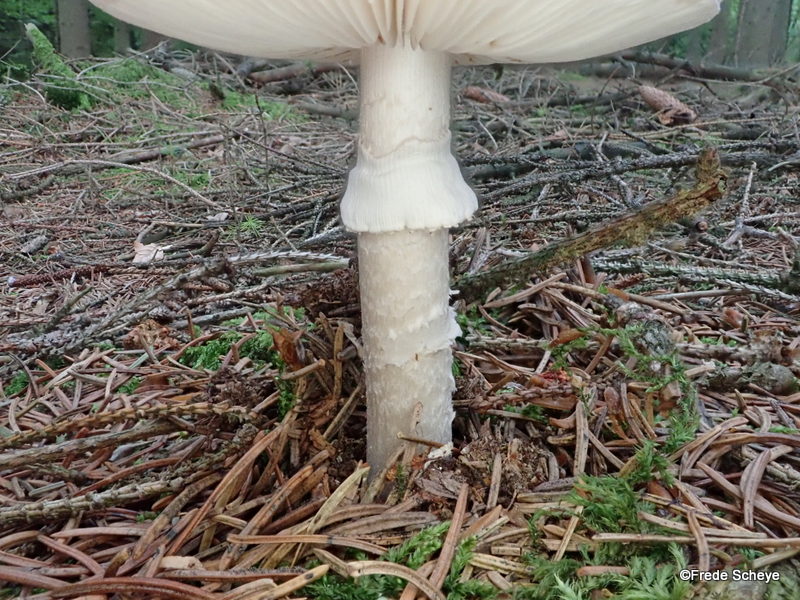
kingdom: Fungi
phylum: Basidiomycota
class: Agaricomycetes
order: Agaricales
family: Amanitaceae
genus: Amanita
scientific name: Amanita vaginata
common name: grå kam-fluesvamp
